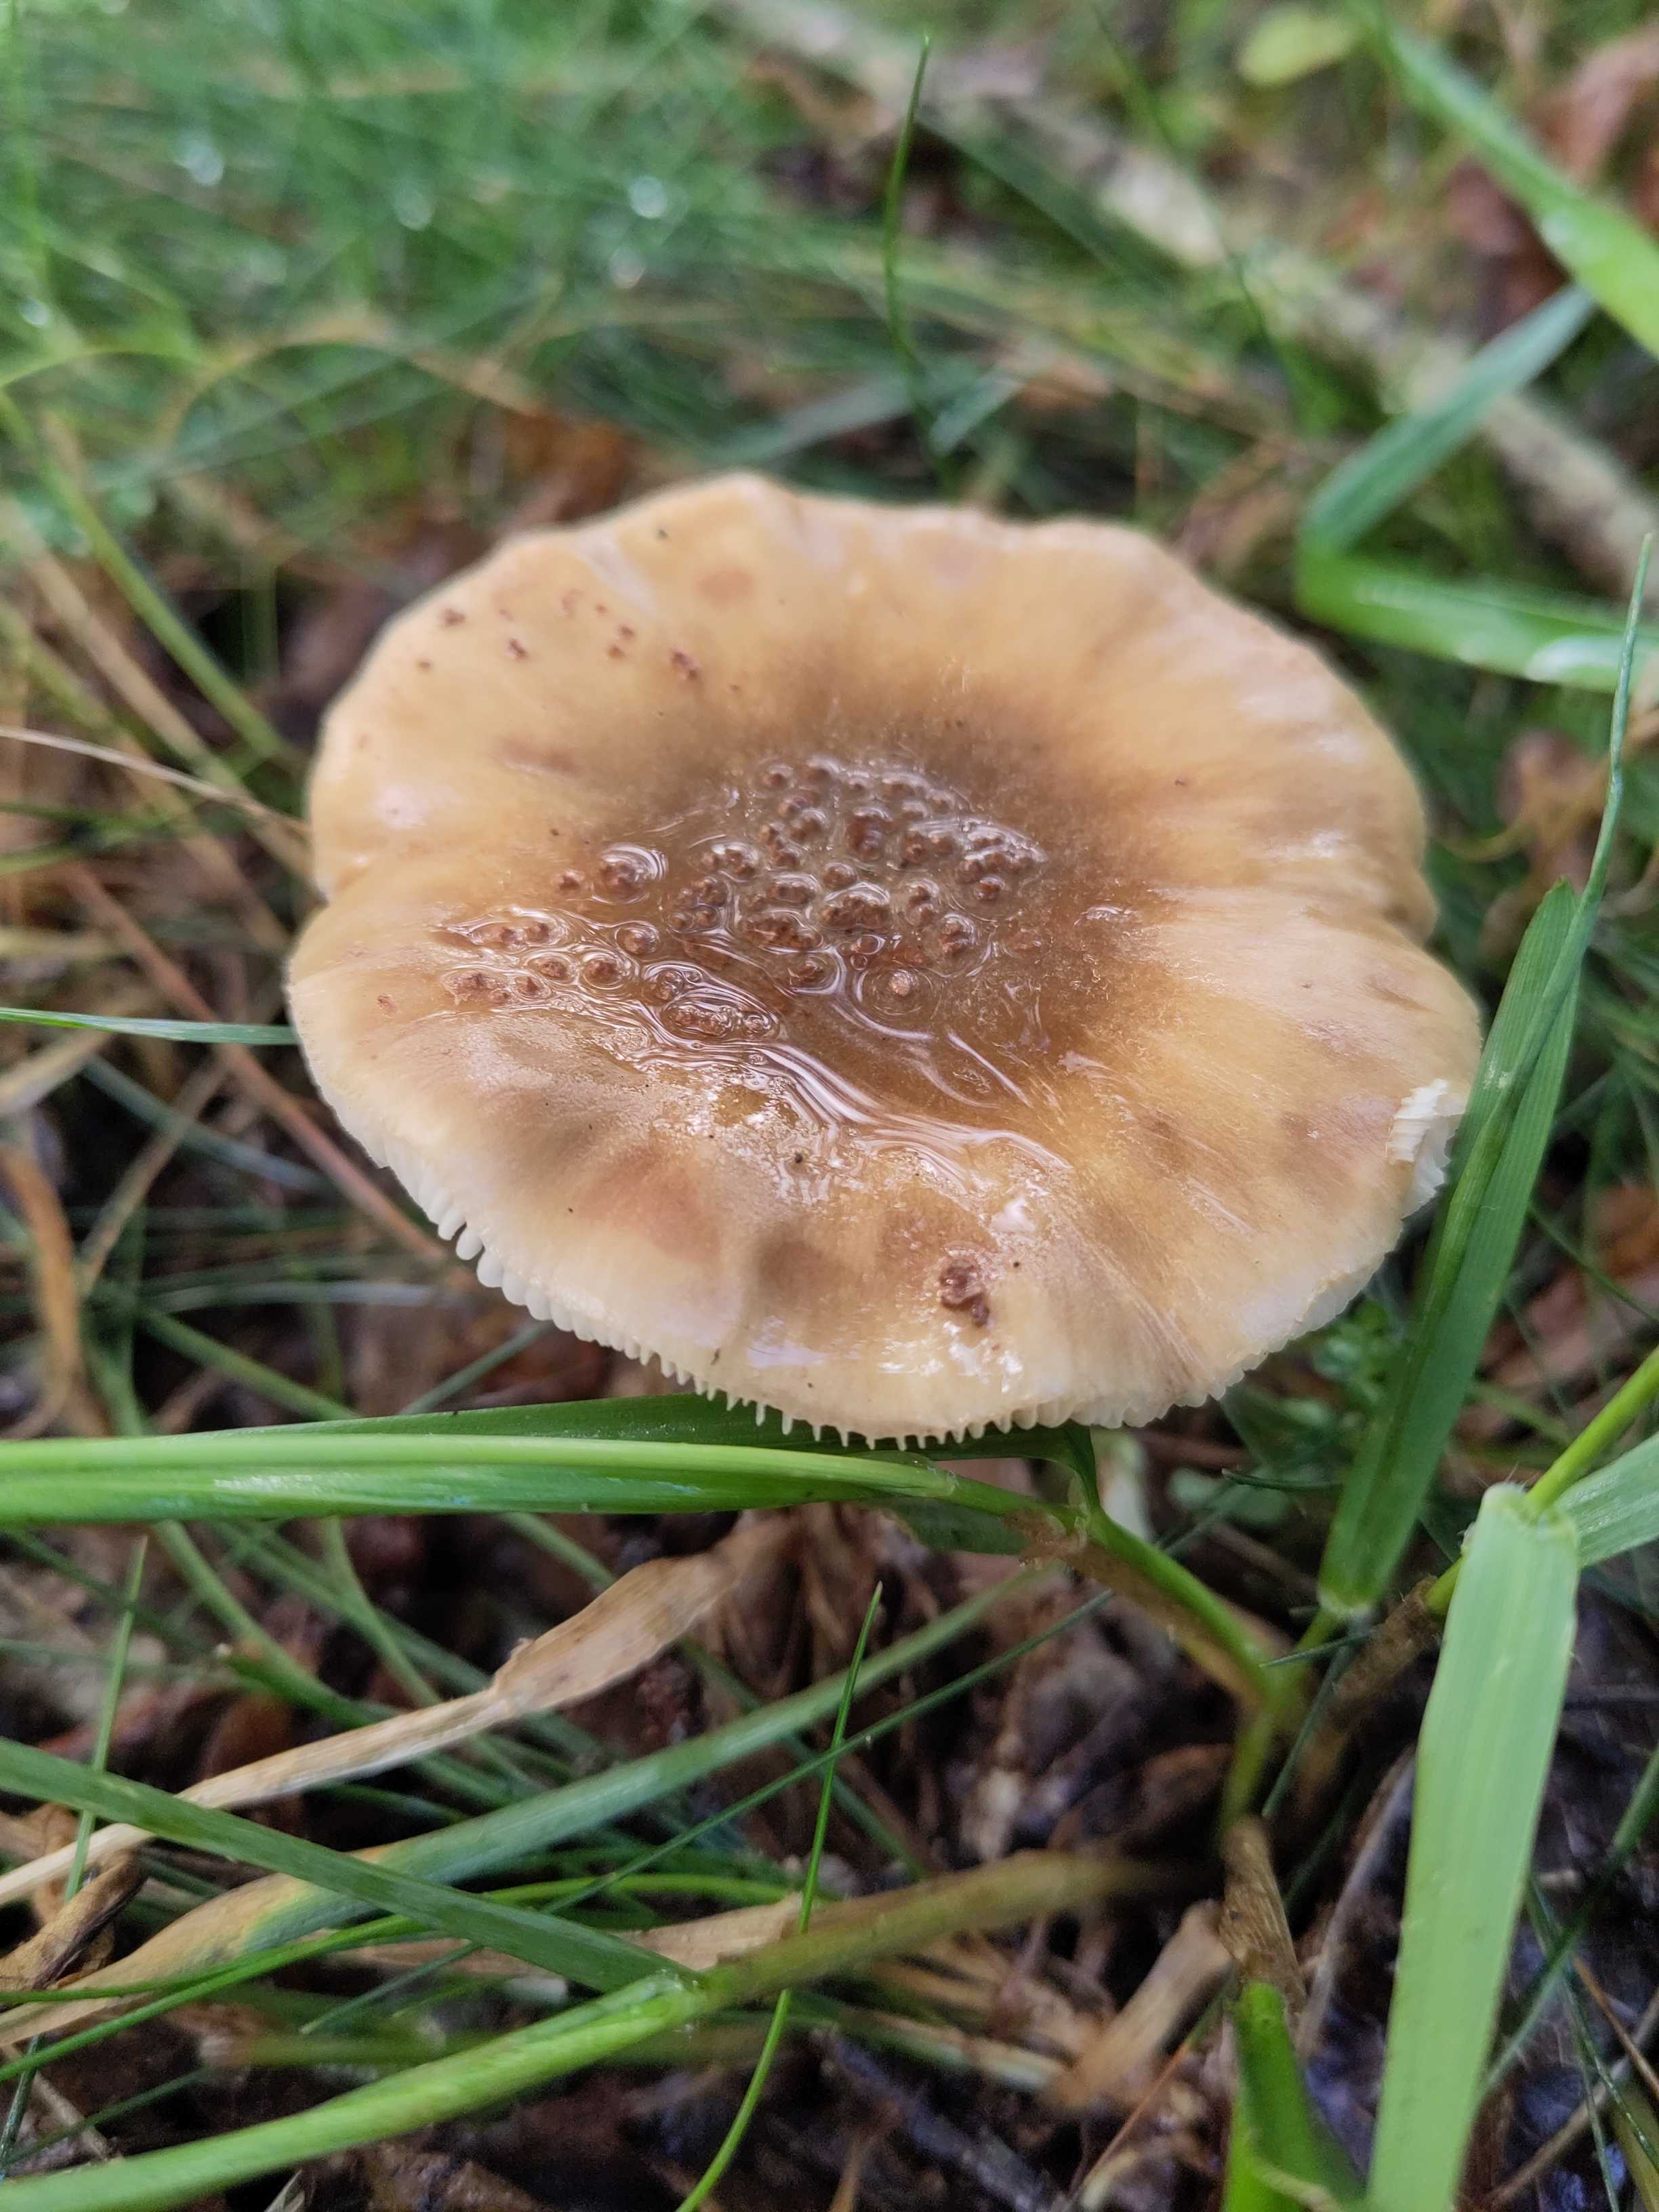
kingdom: Fungi
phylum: Basidiomycota
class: Agaricomycetes
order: Agaricales
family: Amanitaceae
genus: Amanita
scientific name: Amanita rubescens
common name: rødmende fluesvamp
